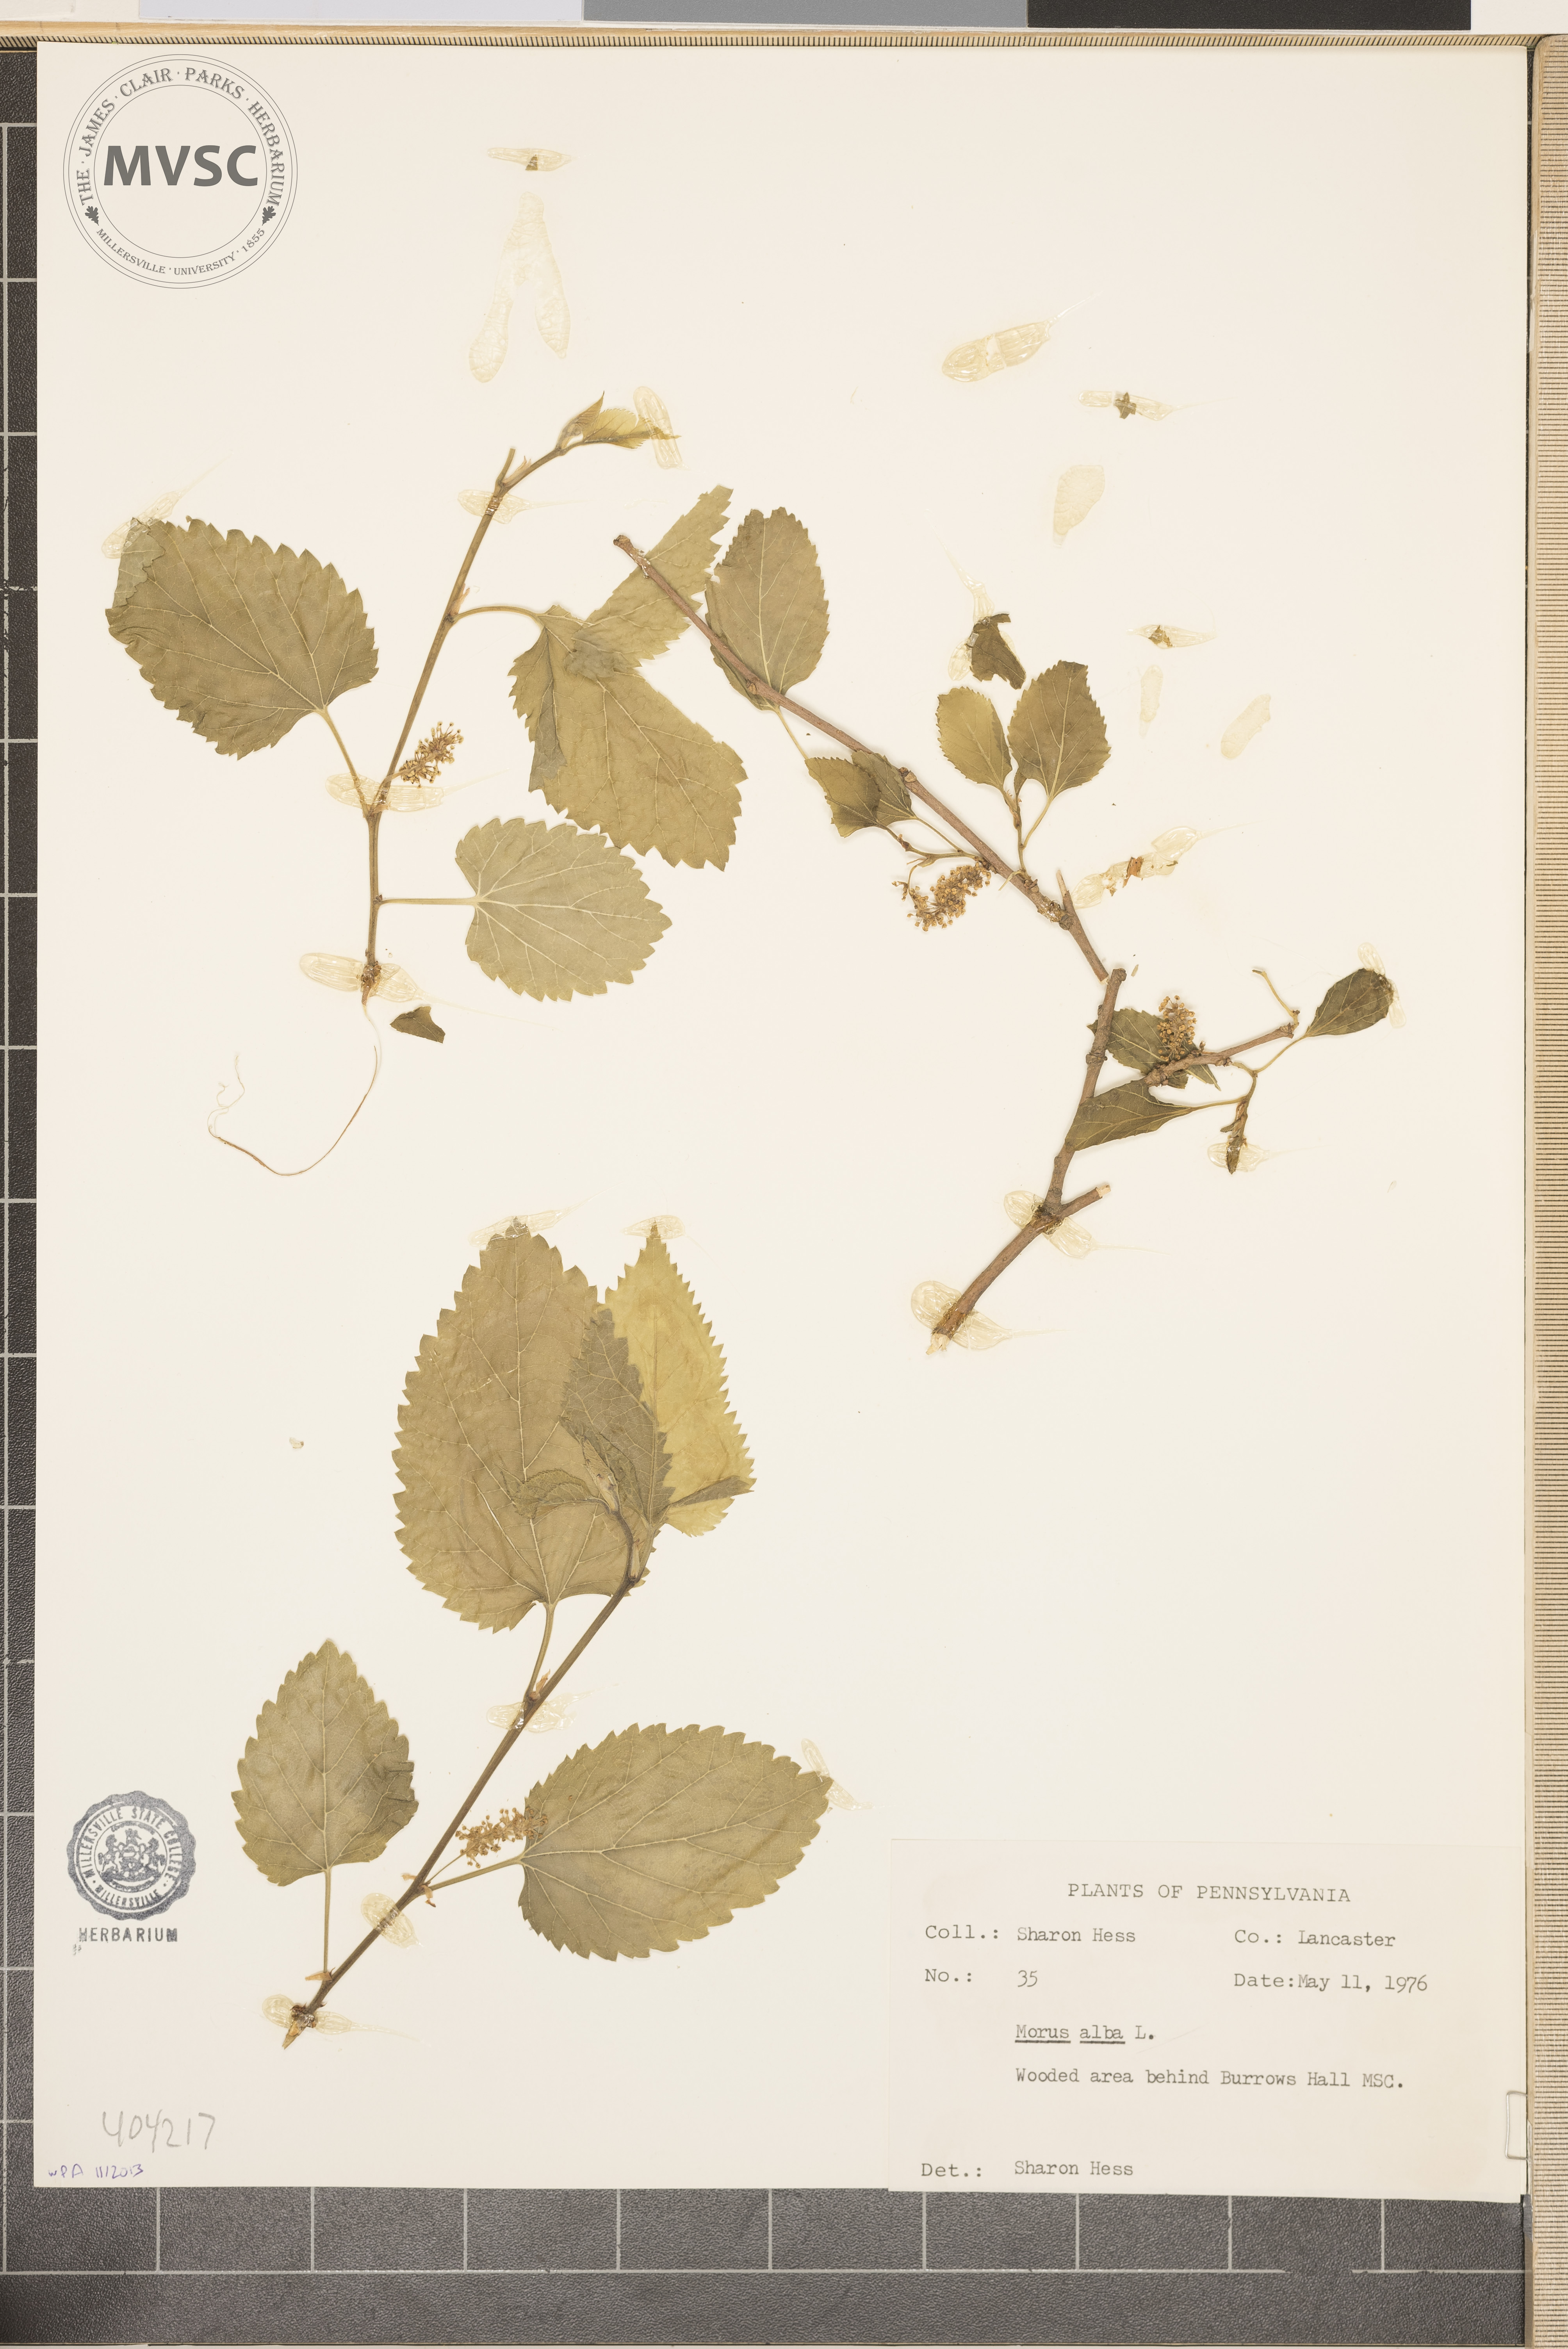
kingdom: Plantae
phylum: Tracheophyta
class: Magnoliopsida
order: Rosales
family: Moraceae
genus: Morus
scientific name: Morus alba
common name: White mulberry
